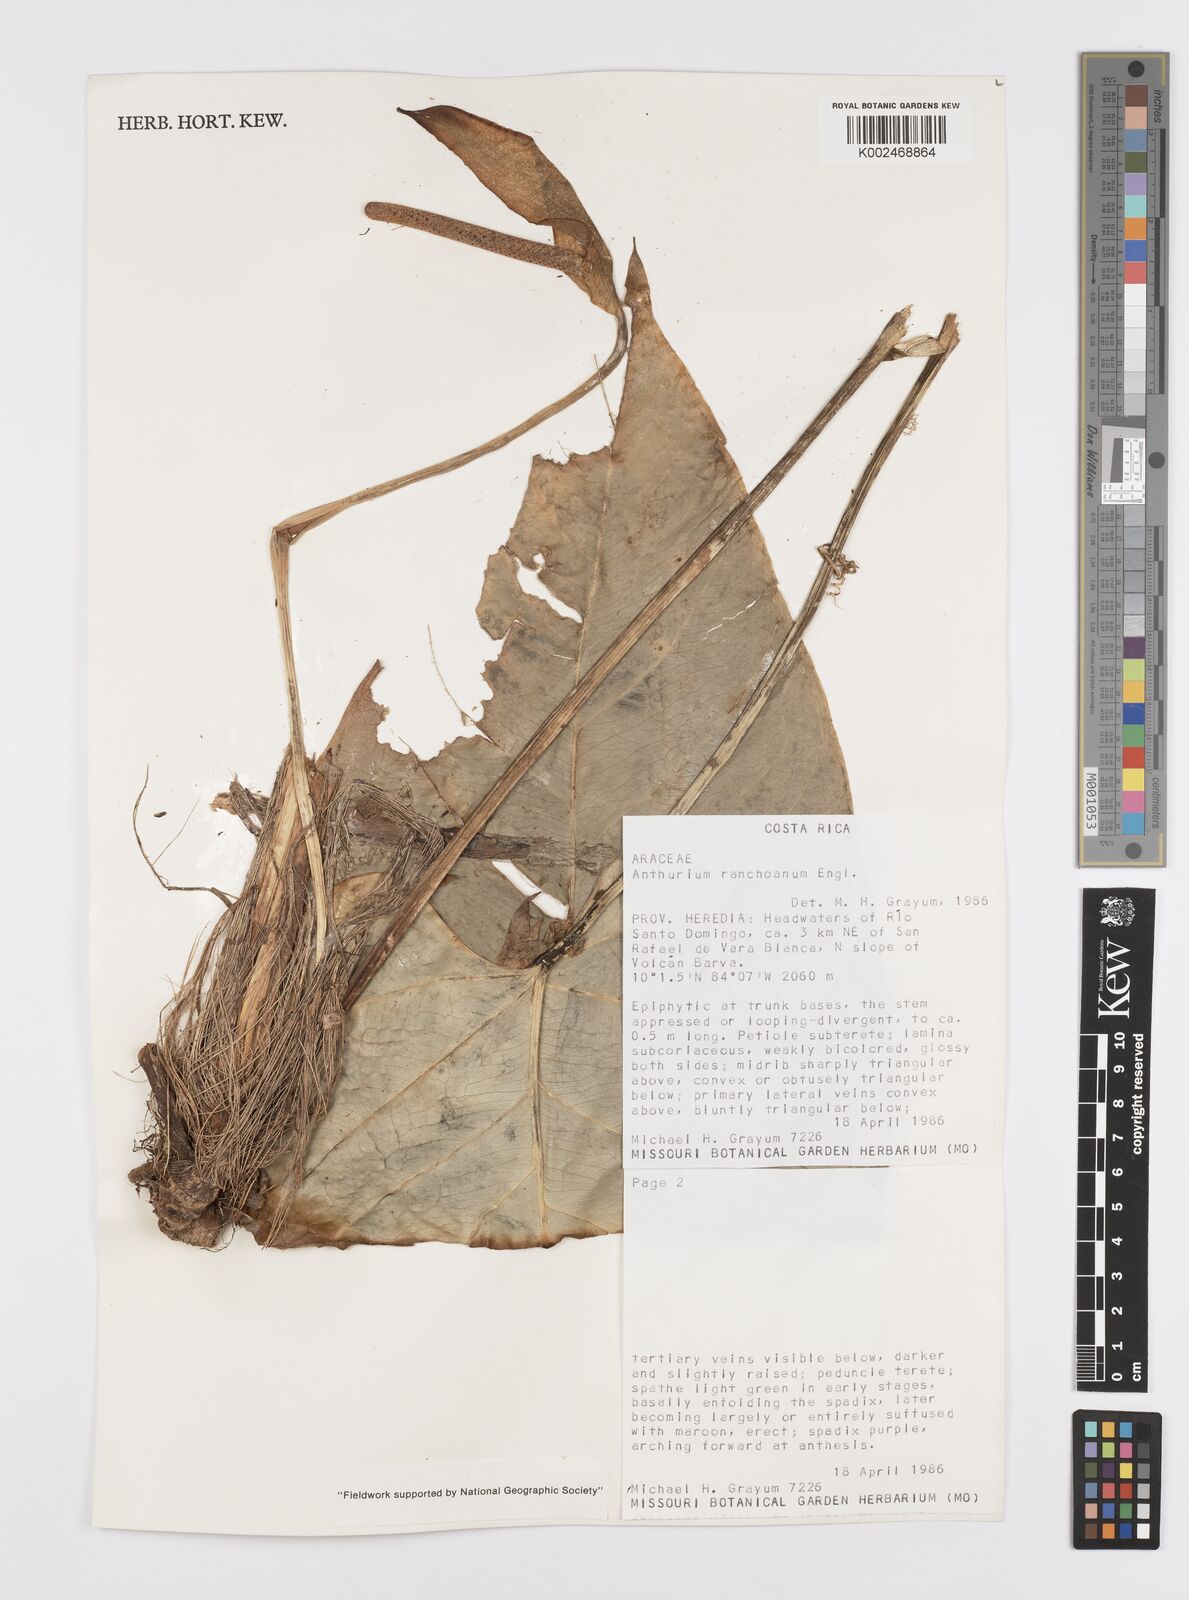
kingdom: Plantae
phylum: Tracheophyta
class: Liliopsida
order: Alismatales
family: Araceae
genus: Anthurium
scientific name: Anthurium ranchoanum
